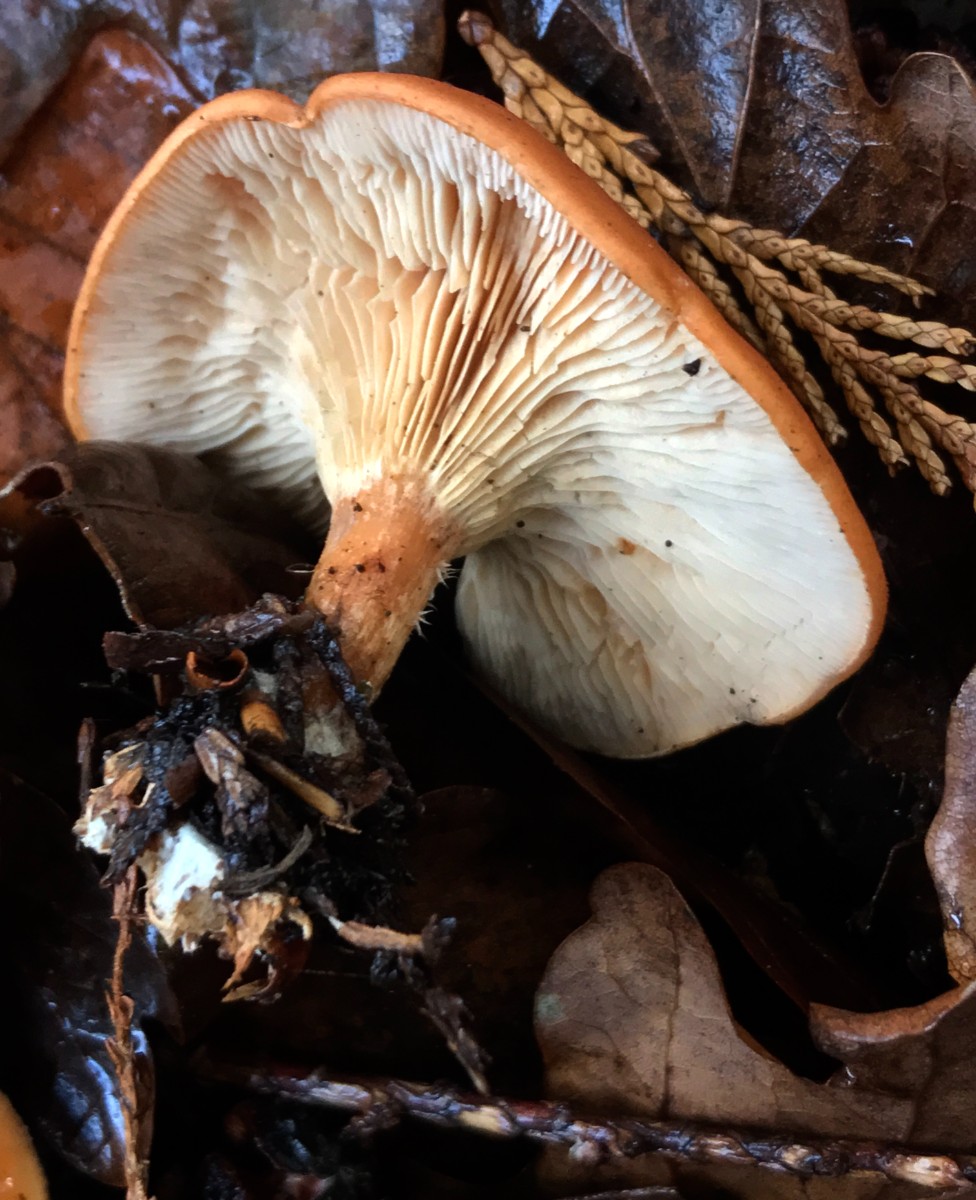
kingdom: Fungi
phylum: Basidiomycota
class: Agaricomycetes
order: Agaricales
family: Tricholomataceae
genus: Paralepista
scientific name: Paralepista flaccida
